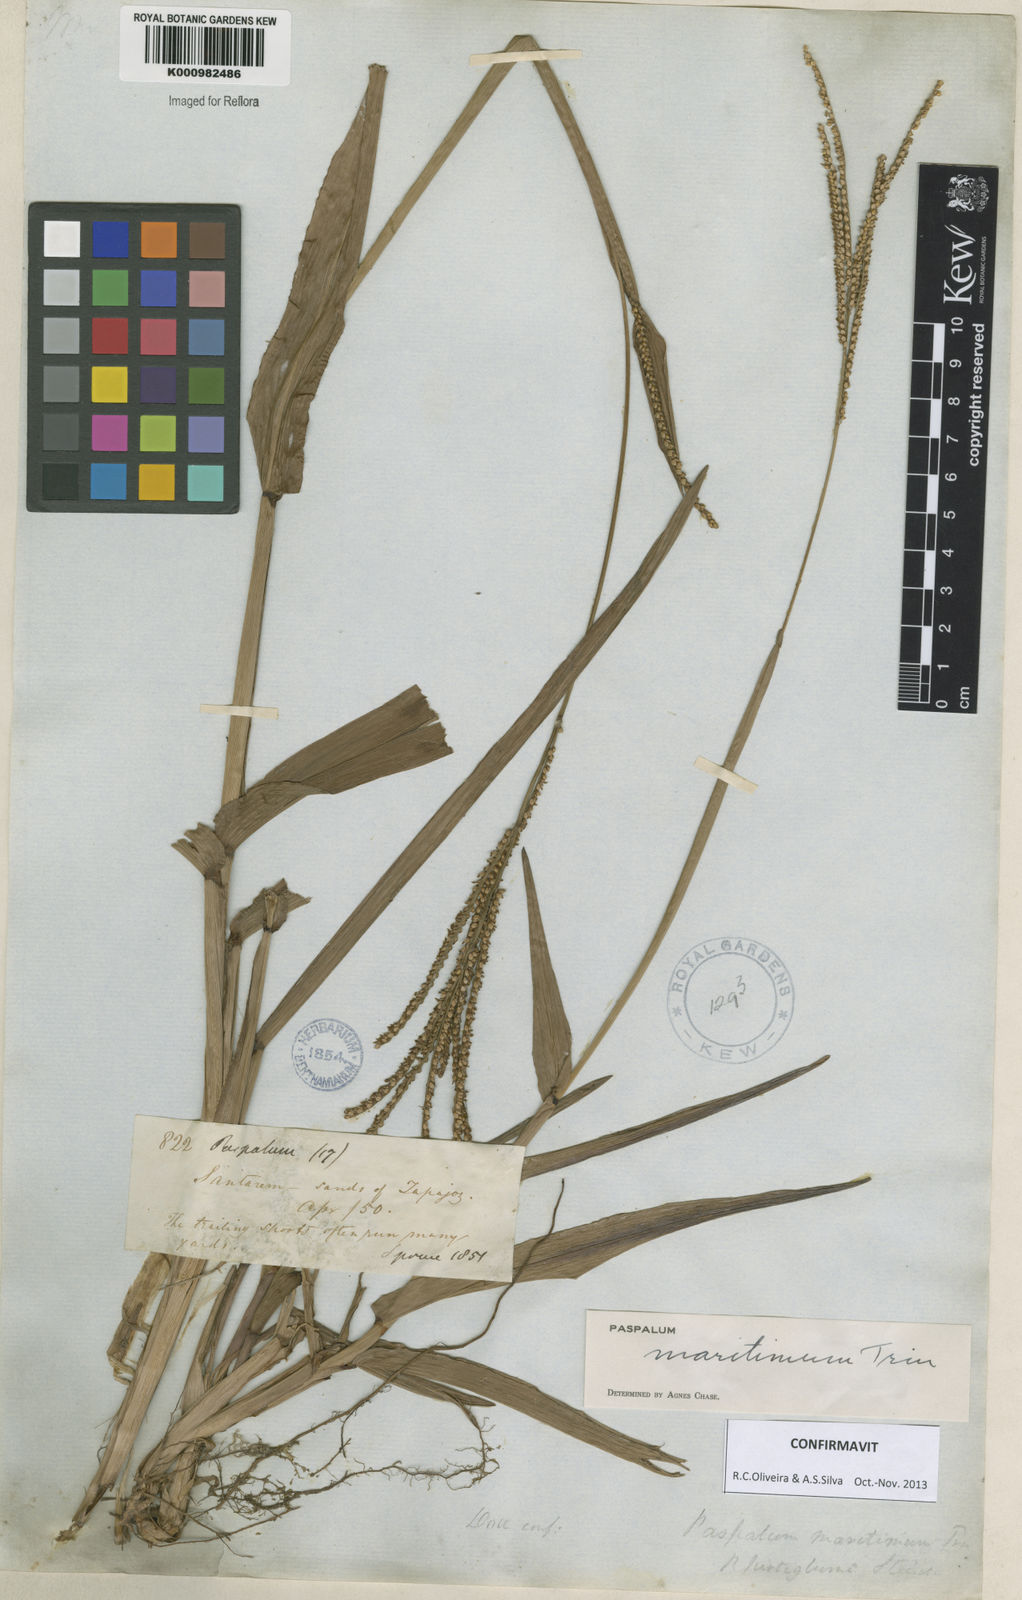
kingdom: Plantae
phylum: Tracheophyta
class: Liliopsida
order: Poales
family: Poaceae
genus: Paspalum
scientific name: Paspalum maritimum
